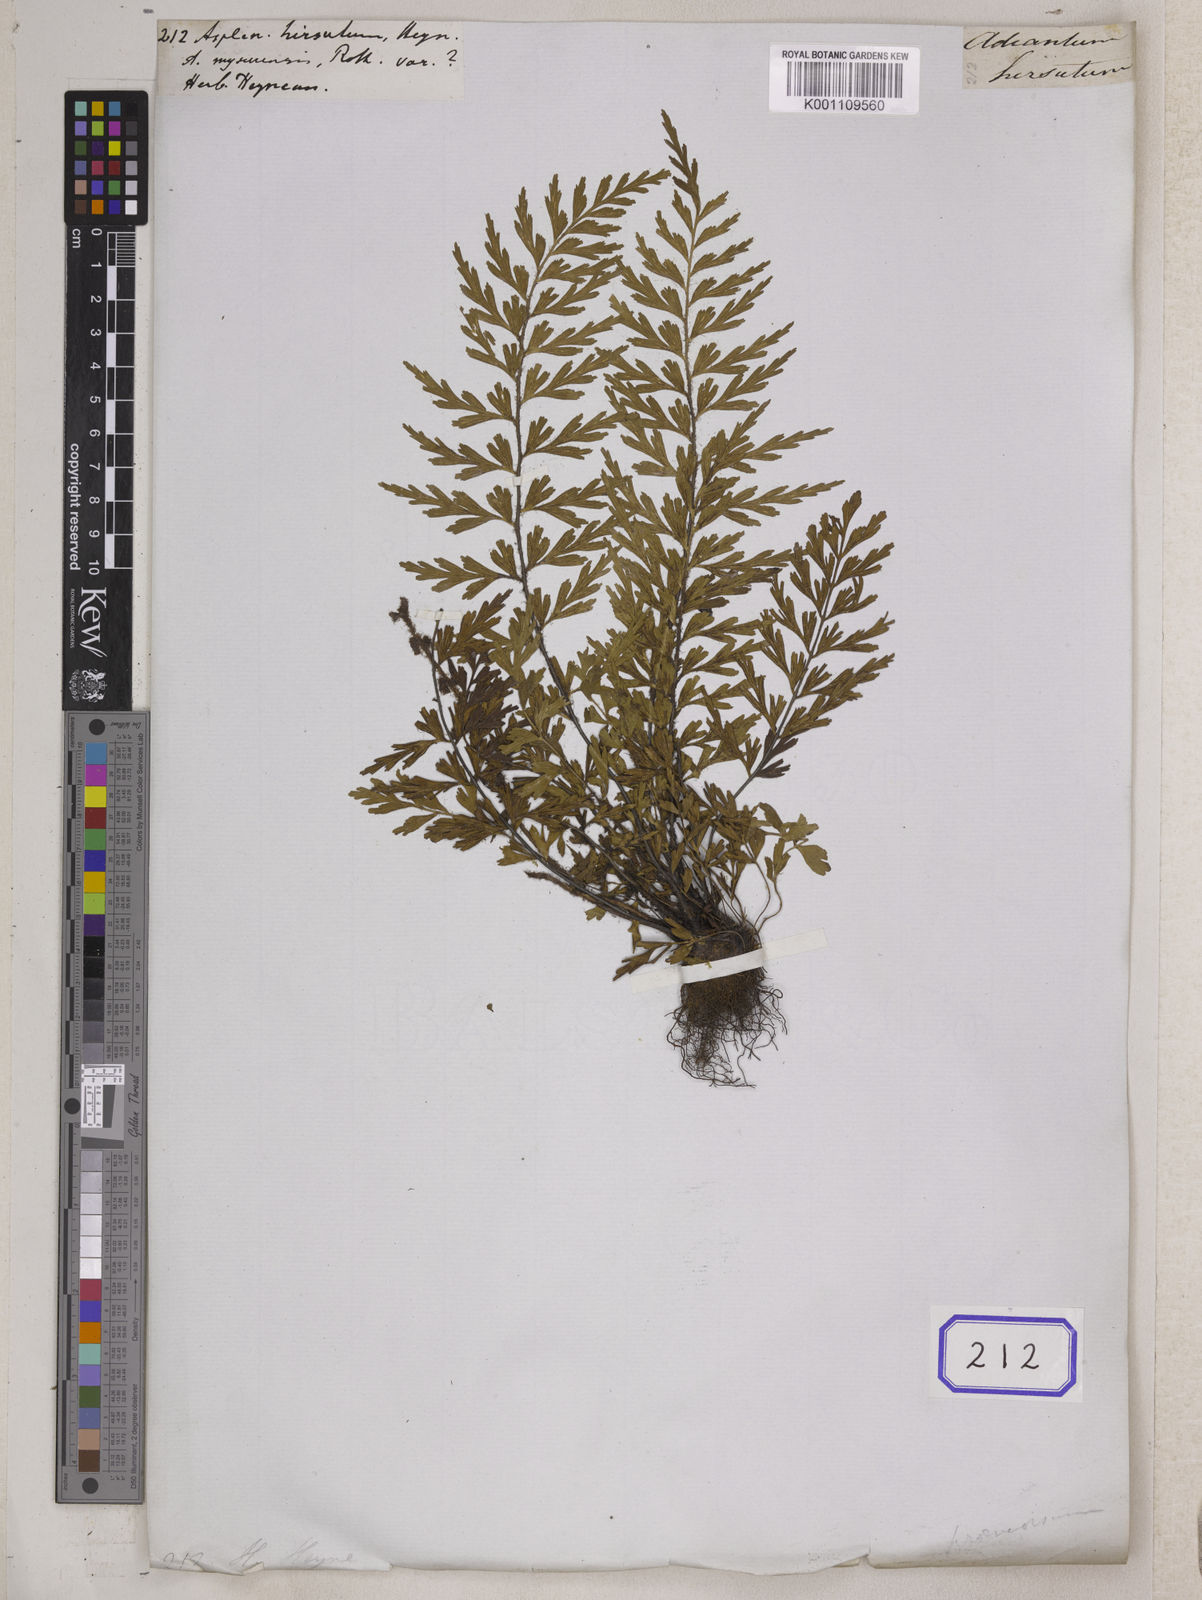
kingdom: Plantae
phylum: Tracheophyta
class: Polypodiopsida
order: Polypodiales
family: Aspleniaceae
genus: Asplenium
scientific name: Asplenium
